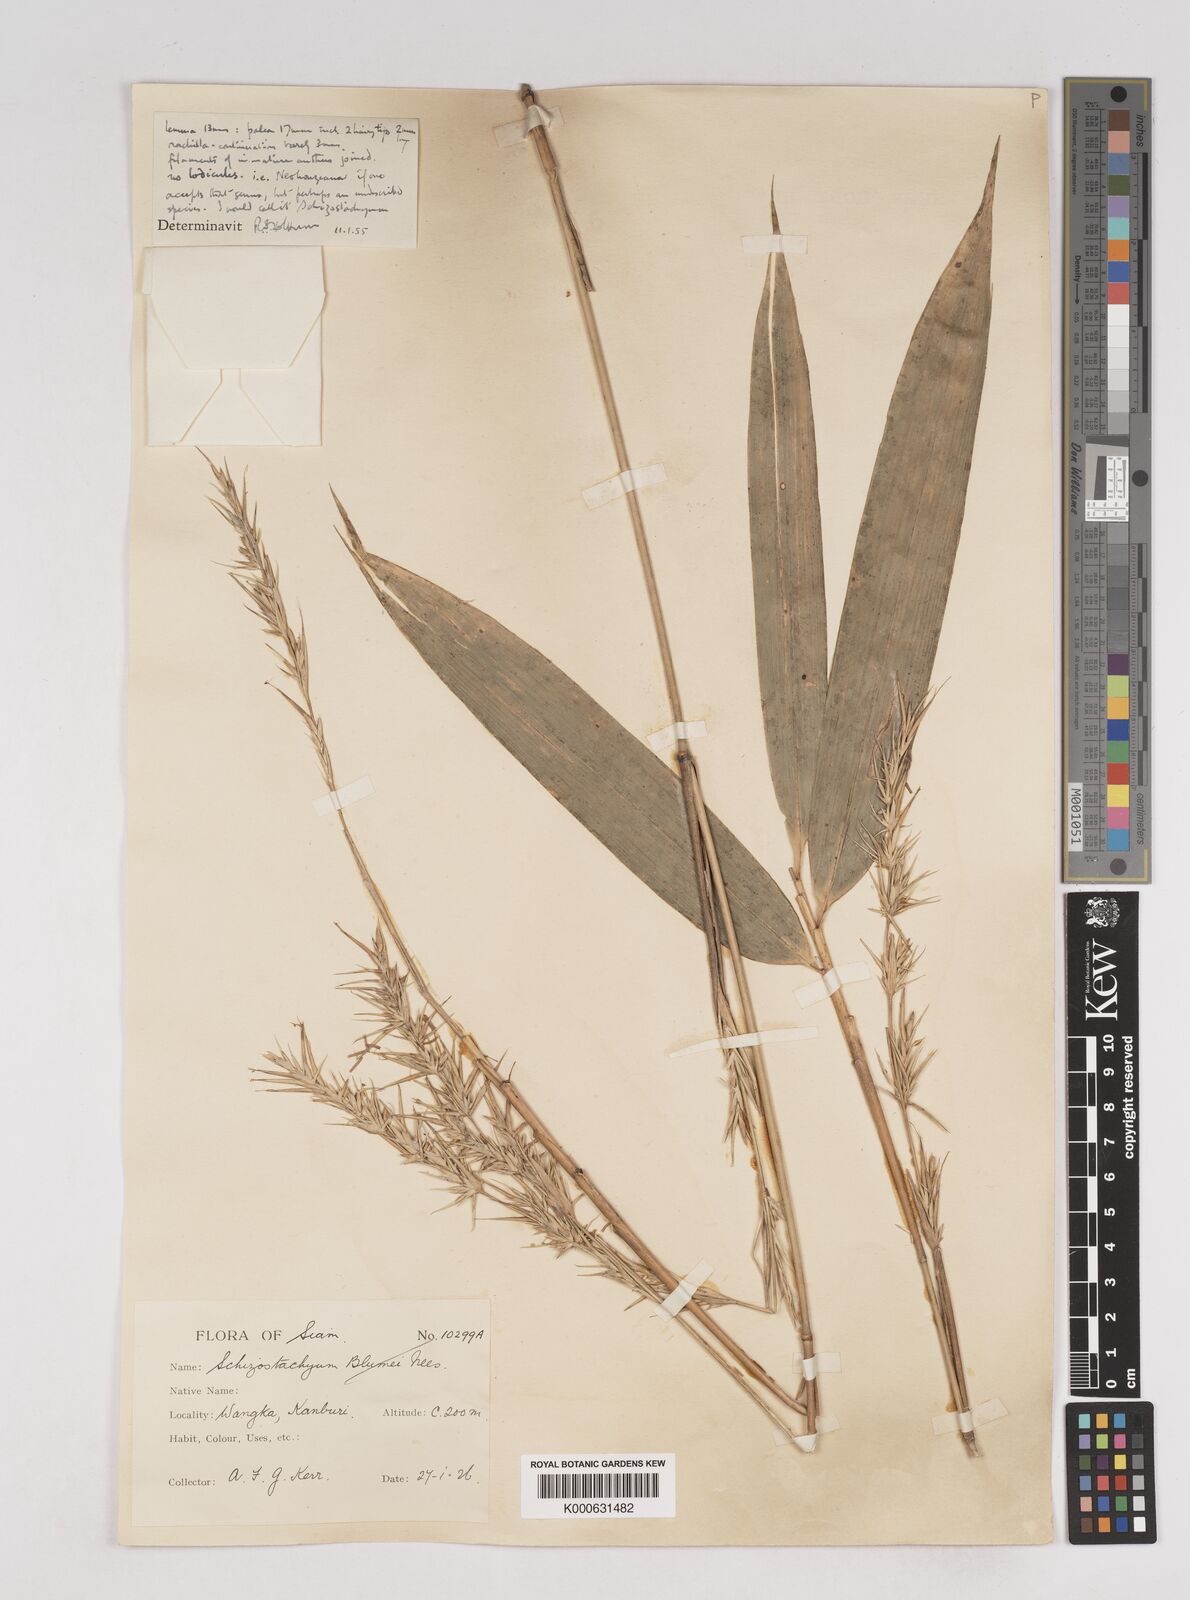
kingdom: Plantae
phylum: Tracheophyta
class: Liliopsida
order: Poales
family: Poaceae
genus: Schizostachyum
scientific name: Schizostachyum
